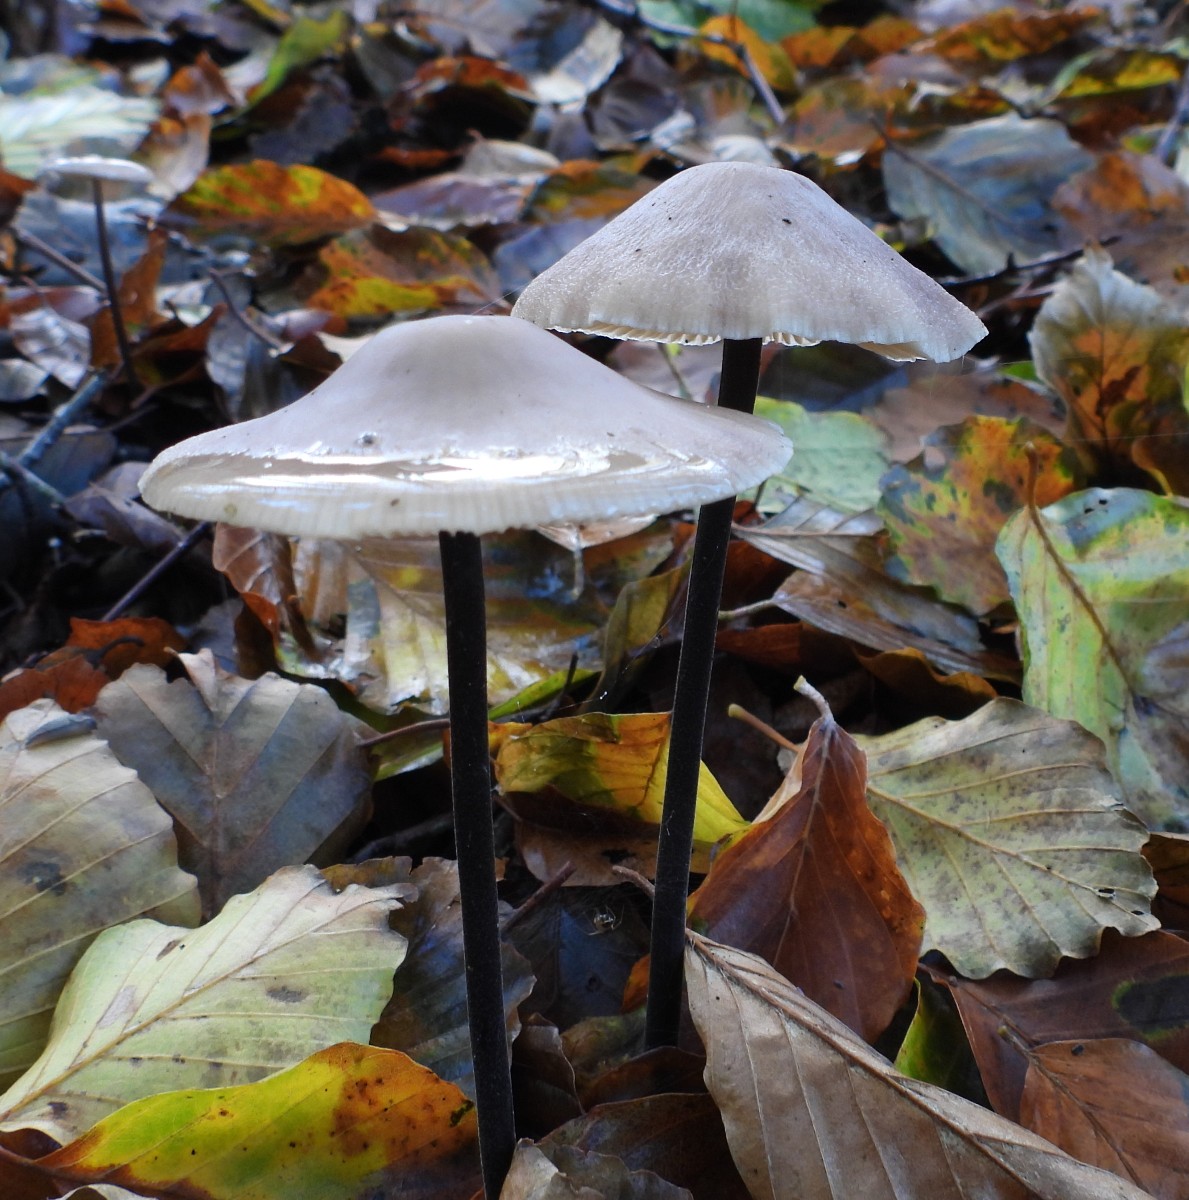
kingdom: Fungi
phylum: Basidiomycota
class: Agaricomycetes
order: Agaricales
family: Omphalotaceae
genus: Mycetinis
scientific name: Mycetinis alliaceus
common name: stor løghat
